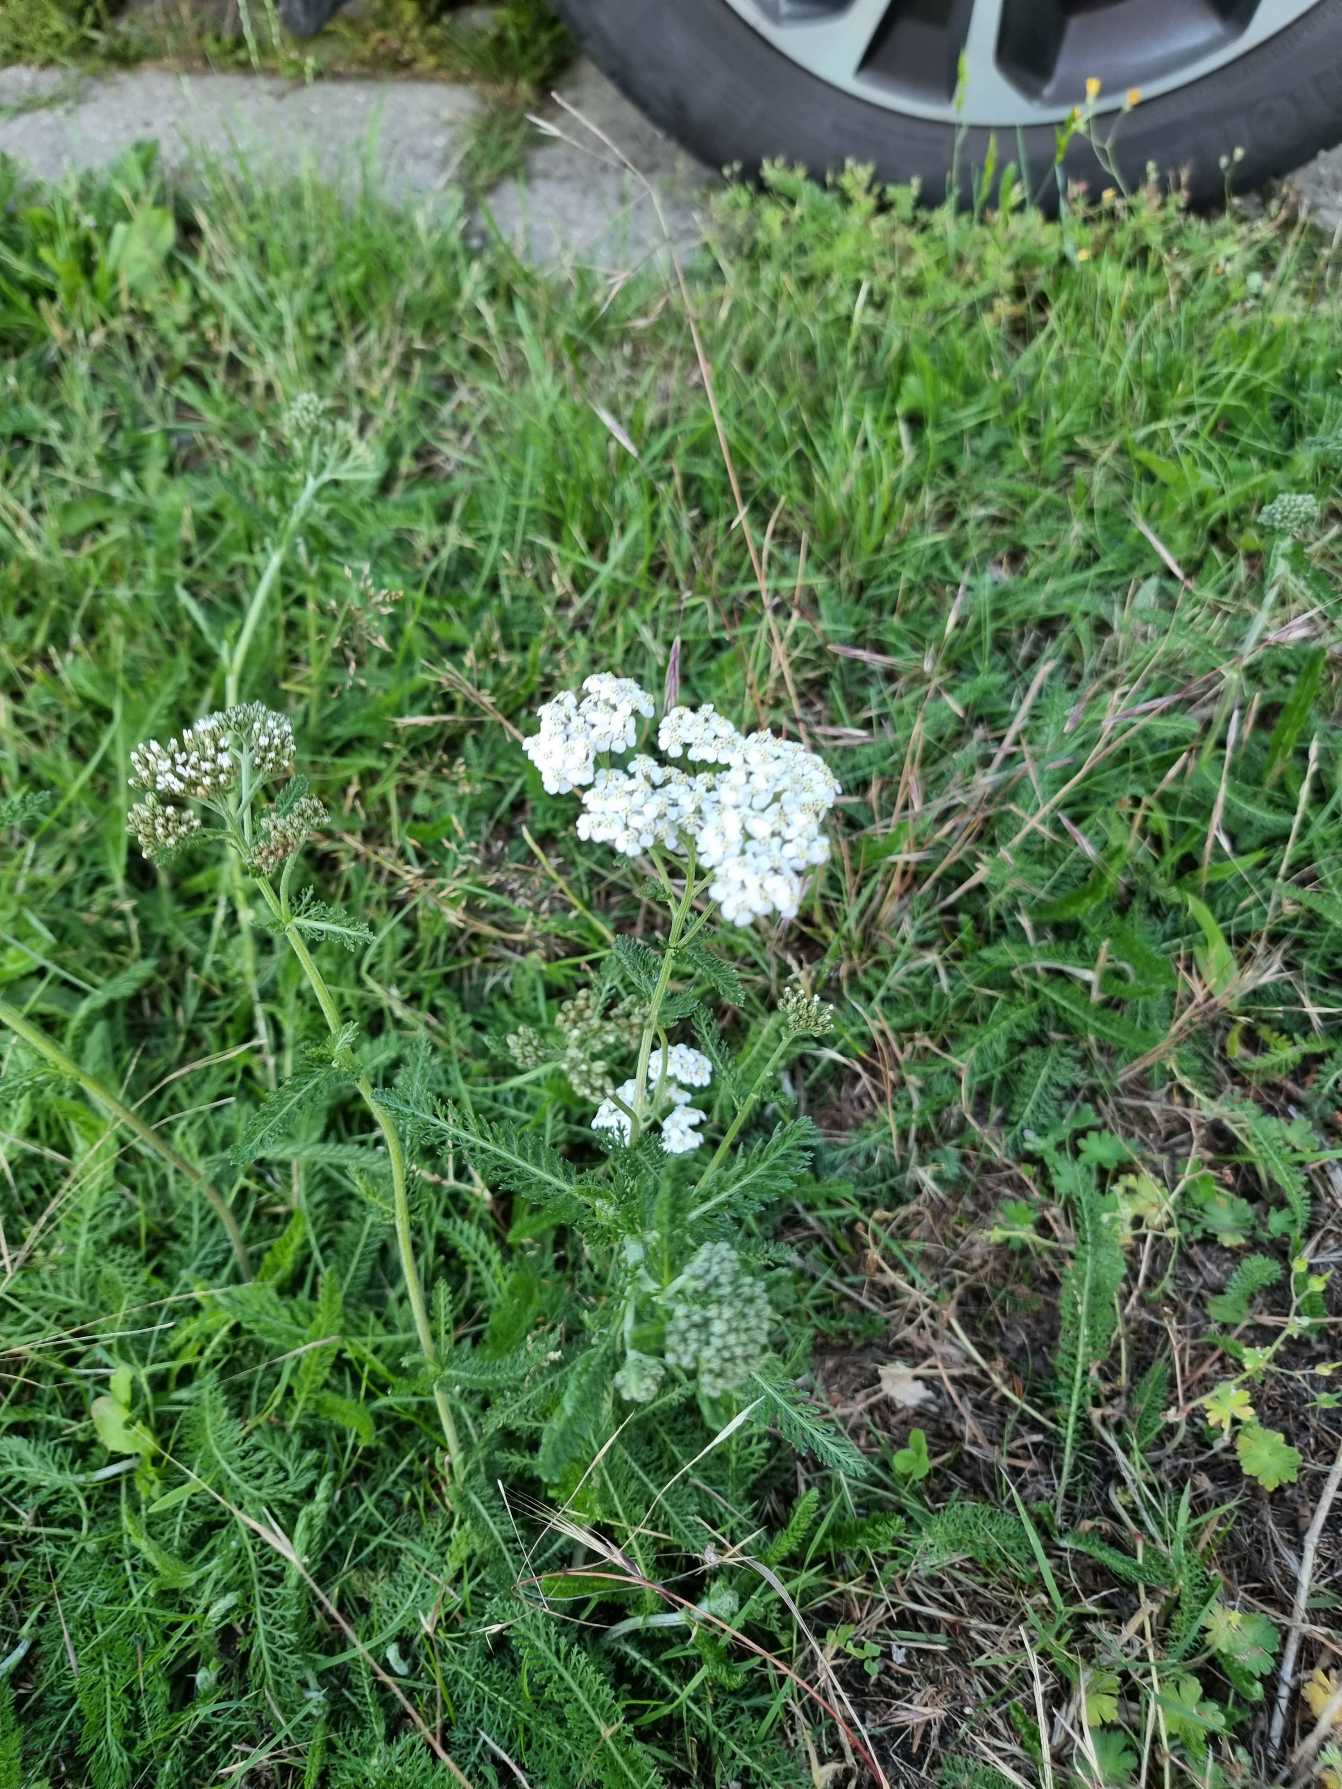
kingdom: Plantae
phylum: Tracheophyta
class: Magnoliopsida
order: Asterales
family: Asteraceae
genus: Achillea
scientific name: Achillea millefolium
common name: Almindelig røllike
